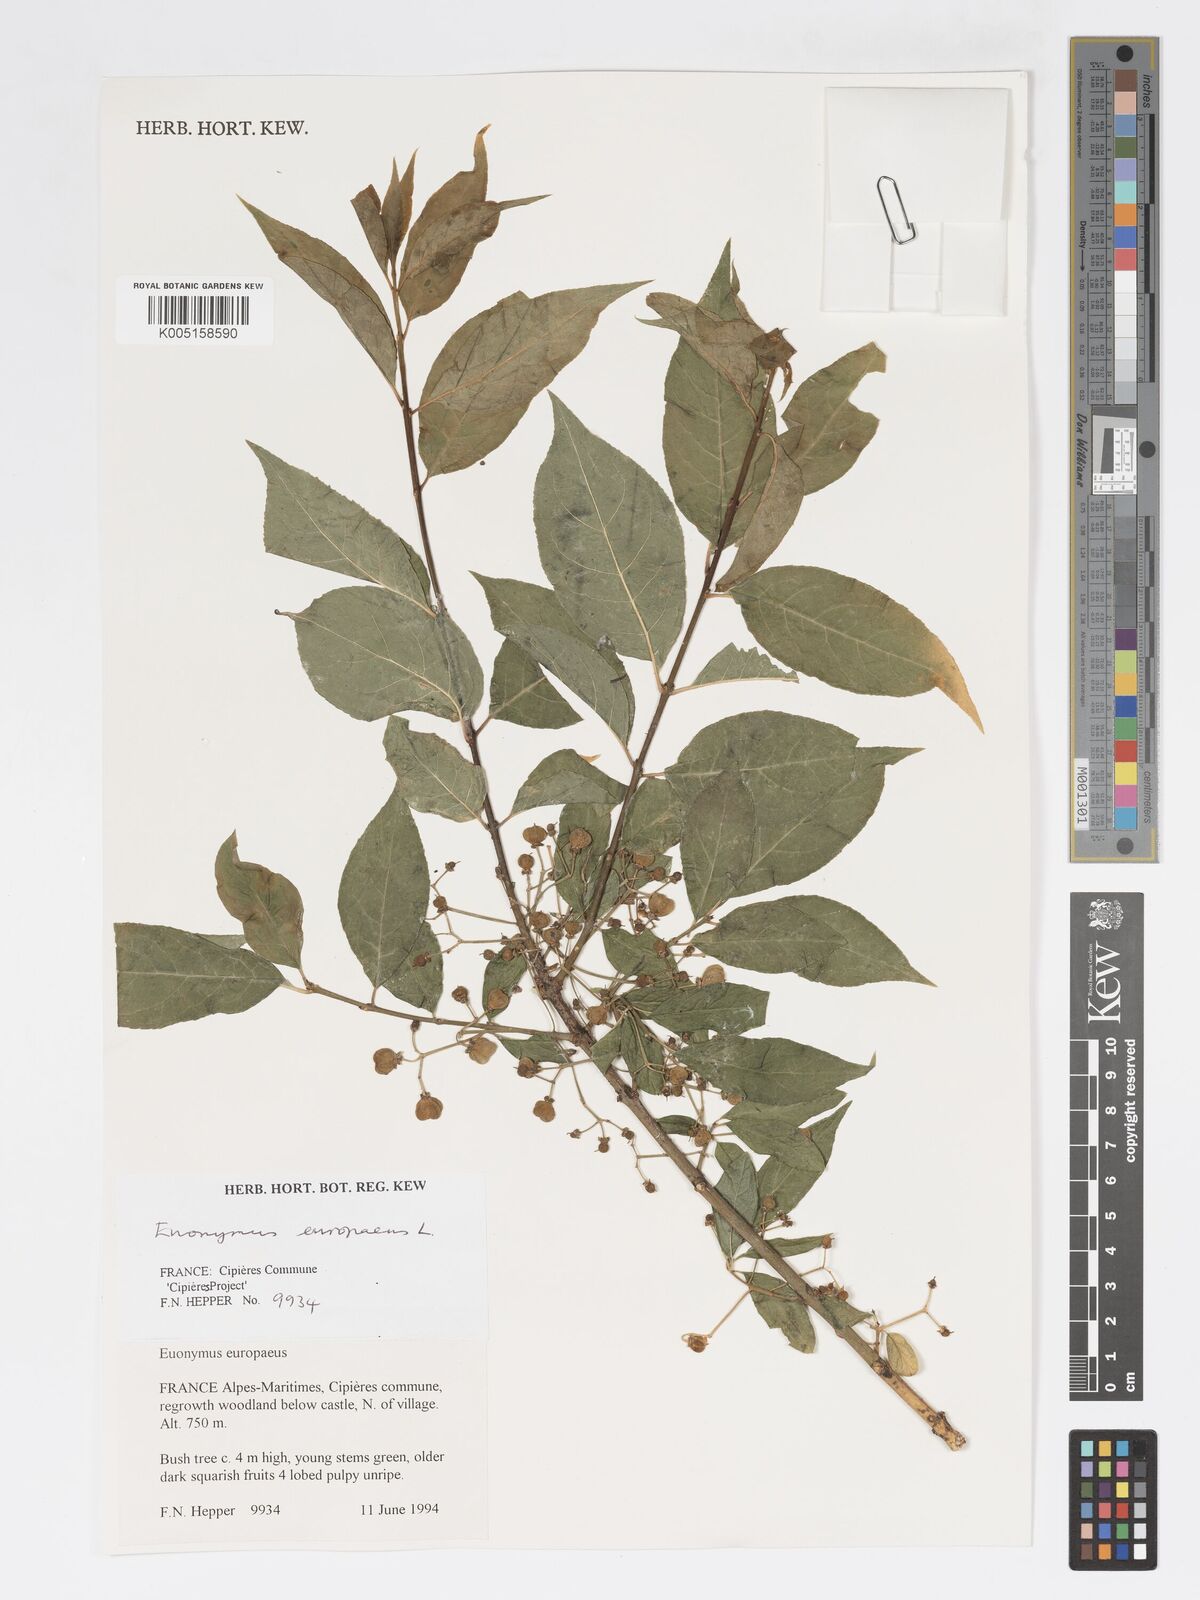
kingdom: Plantae
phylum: Tracheophyta
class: Magnoliopsida
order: Celastrales
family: Celastraceae
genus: Euonymus
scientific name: Euonymus europaeus
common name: Spindle
